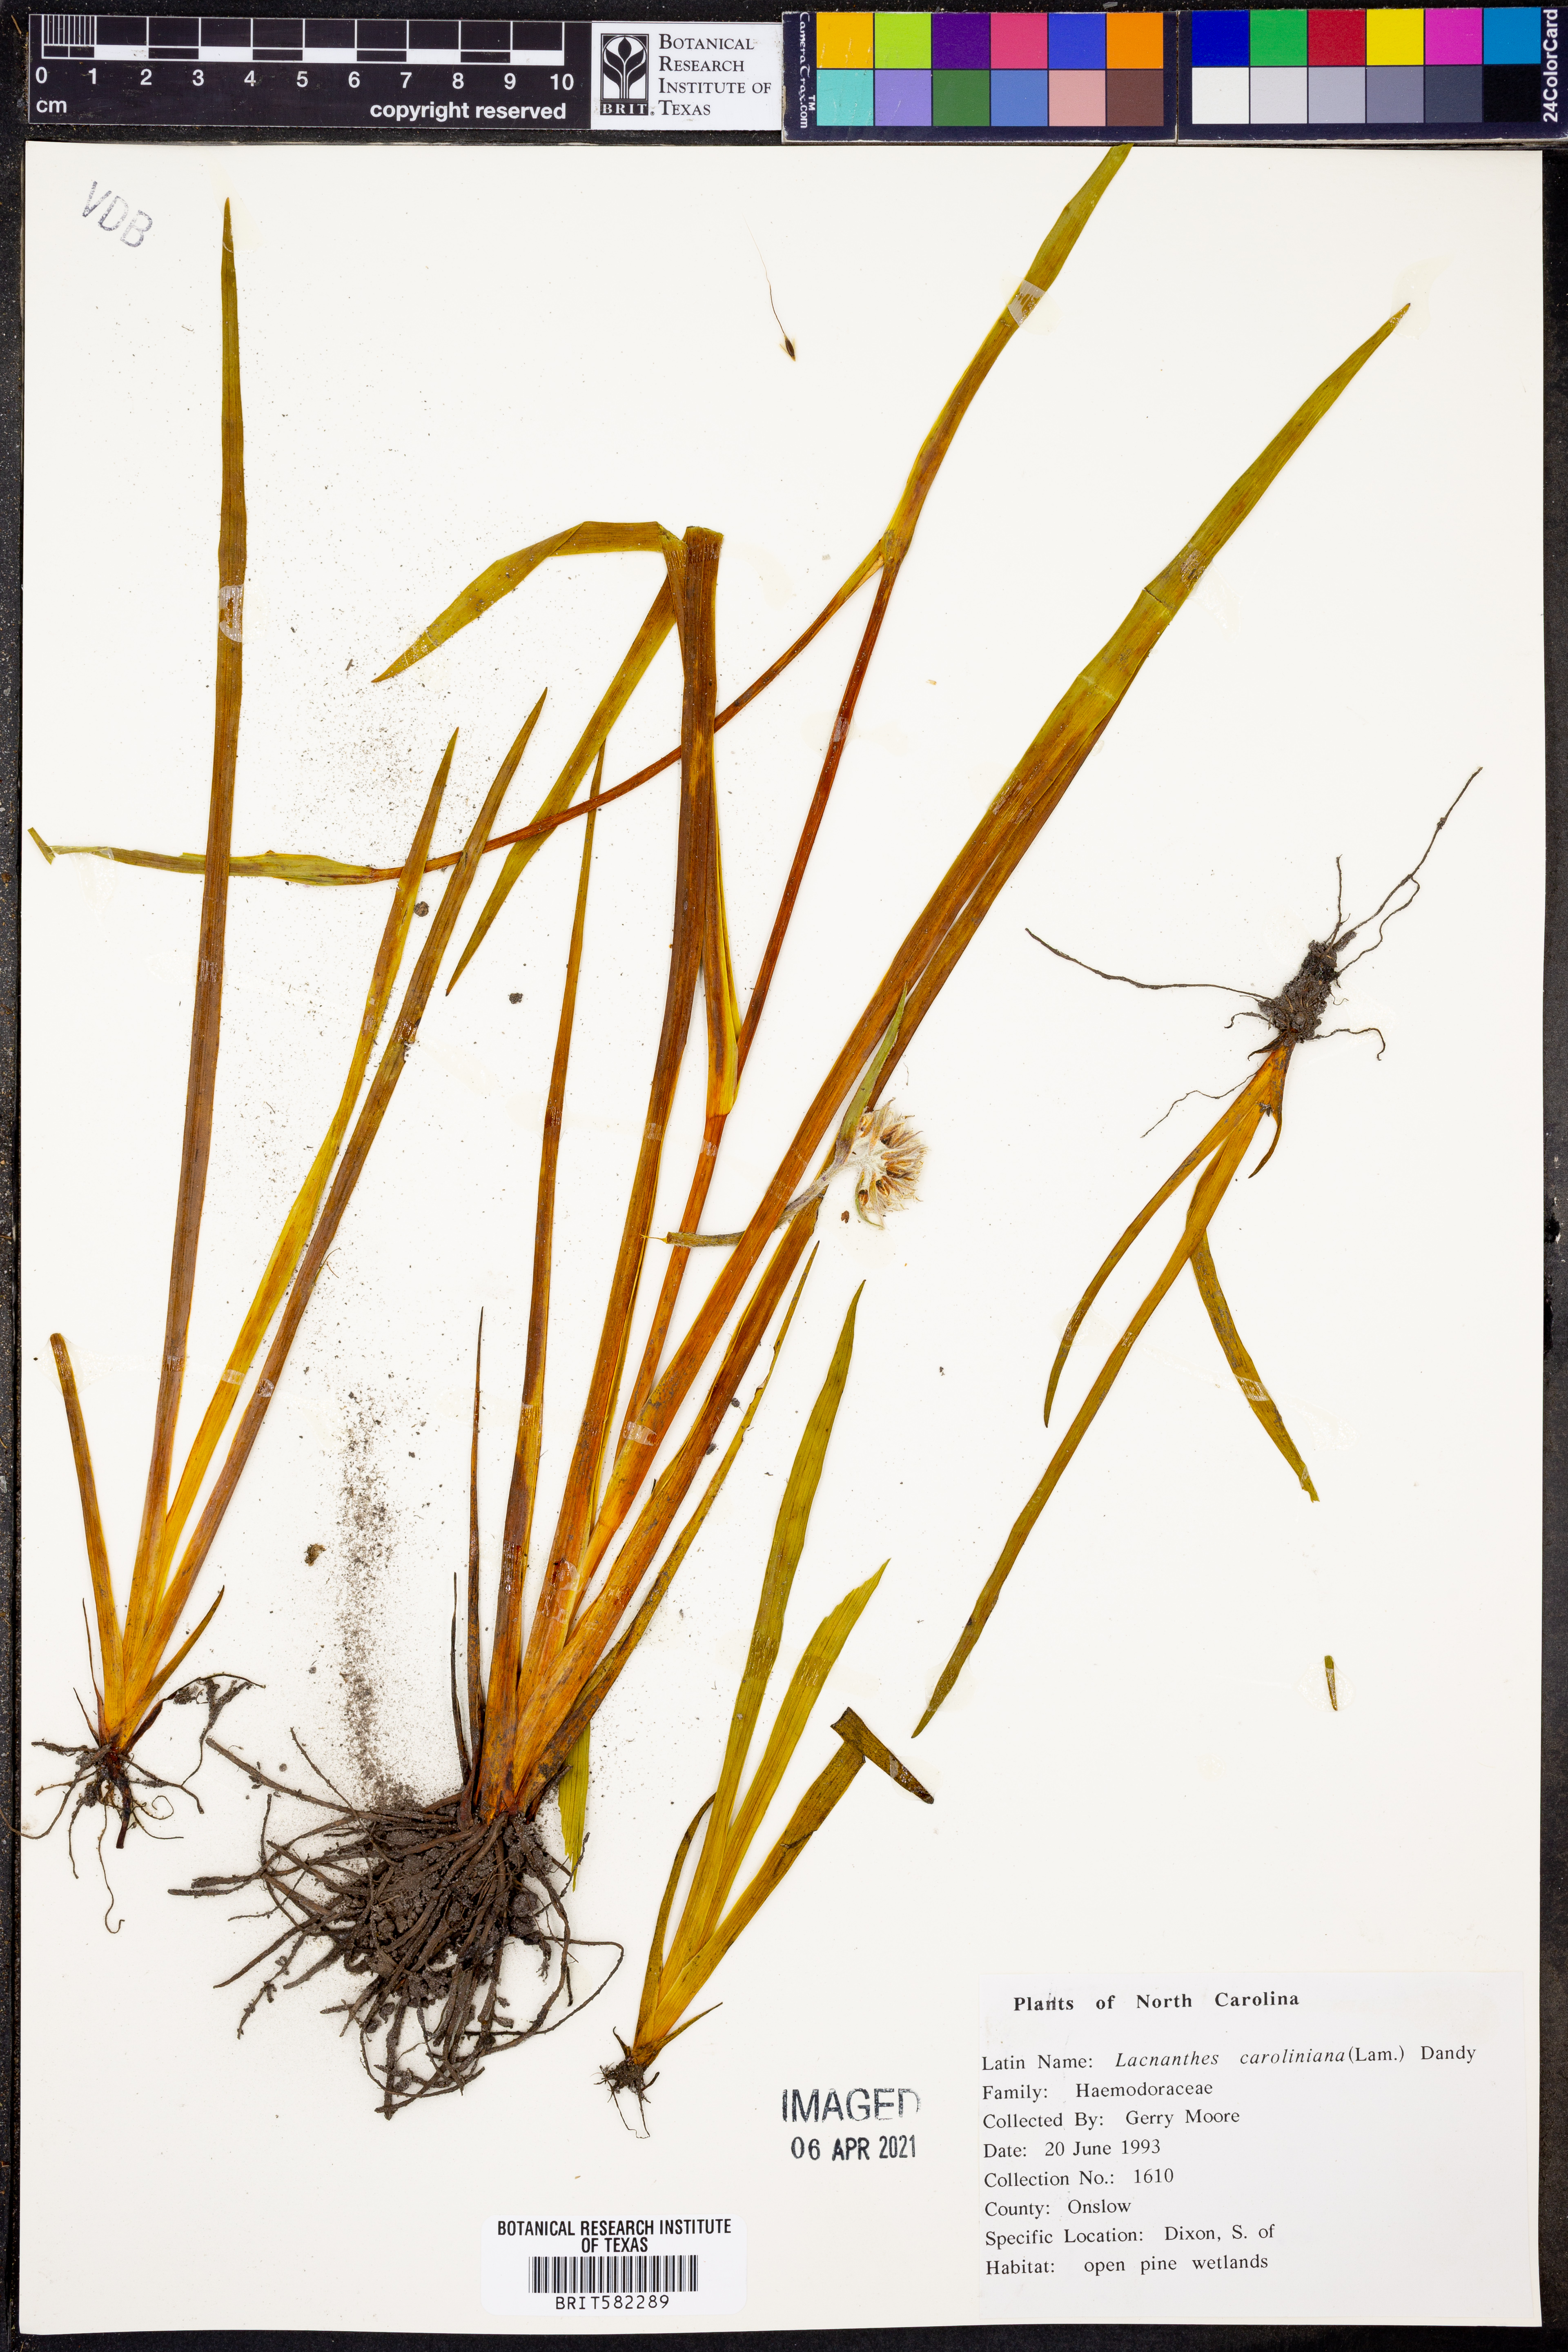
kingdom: Plantae
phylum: Tracheophyta
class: Liliopsida
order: Commelinales
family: Haemodoraceae
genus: Lachnanthes
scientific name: Lachnanthes caroliniana
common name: Carolina redroot
